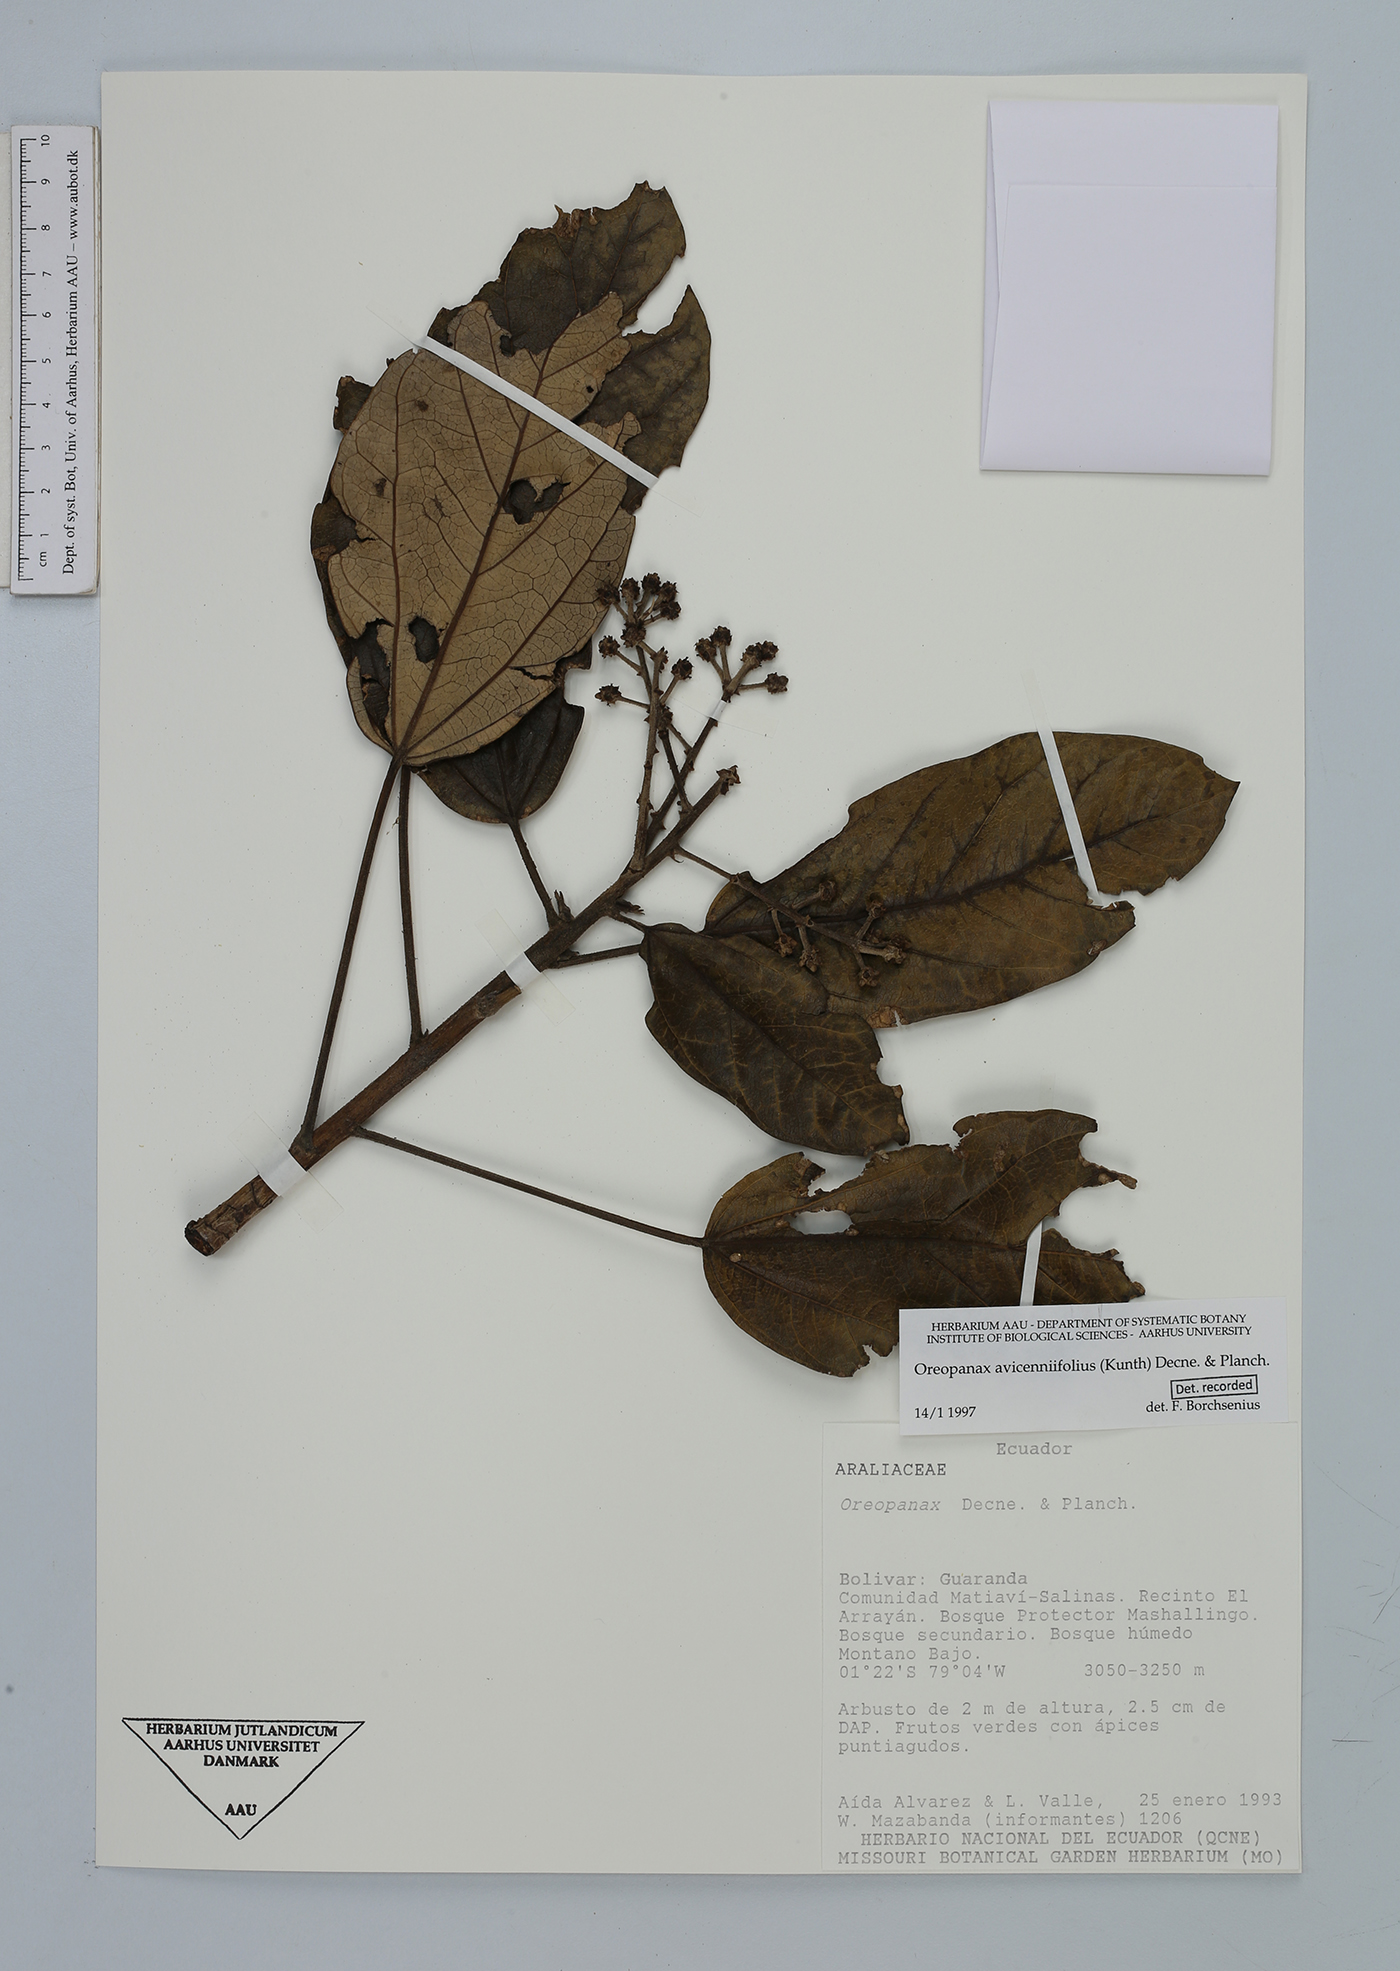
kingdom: Plantae
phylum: Tracheophyta
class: Magnoliopsida
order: Apiales
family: Araliaceae
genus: Oreopanax
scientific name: Oreopanax avicenniifolius
